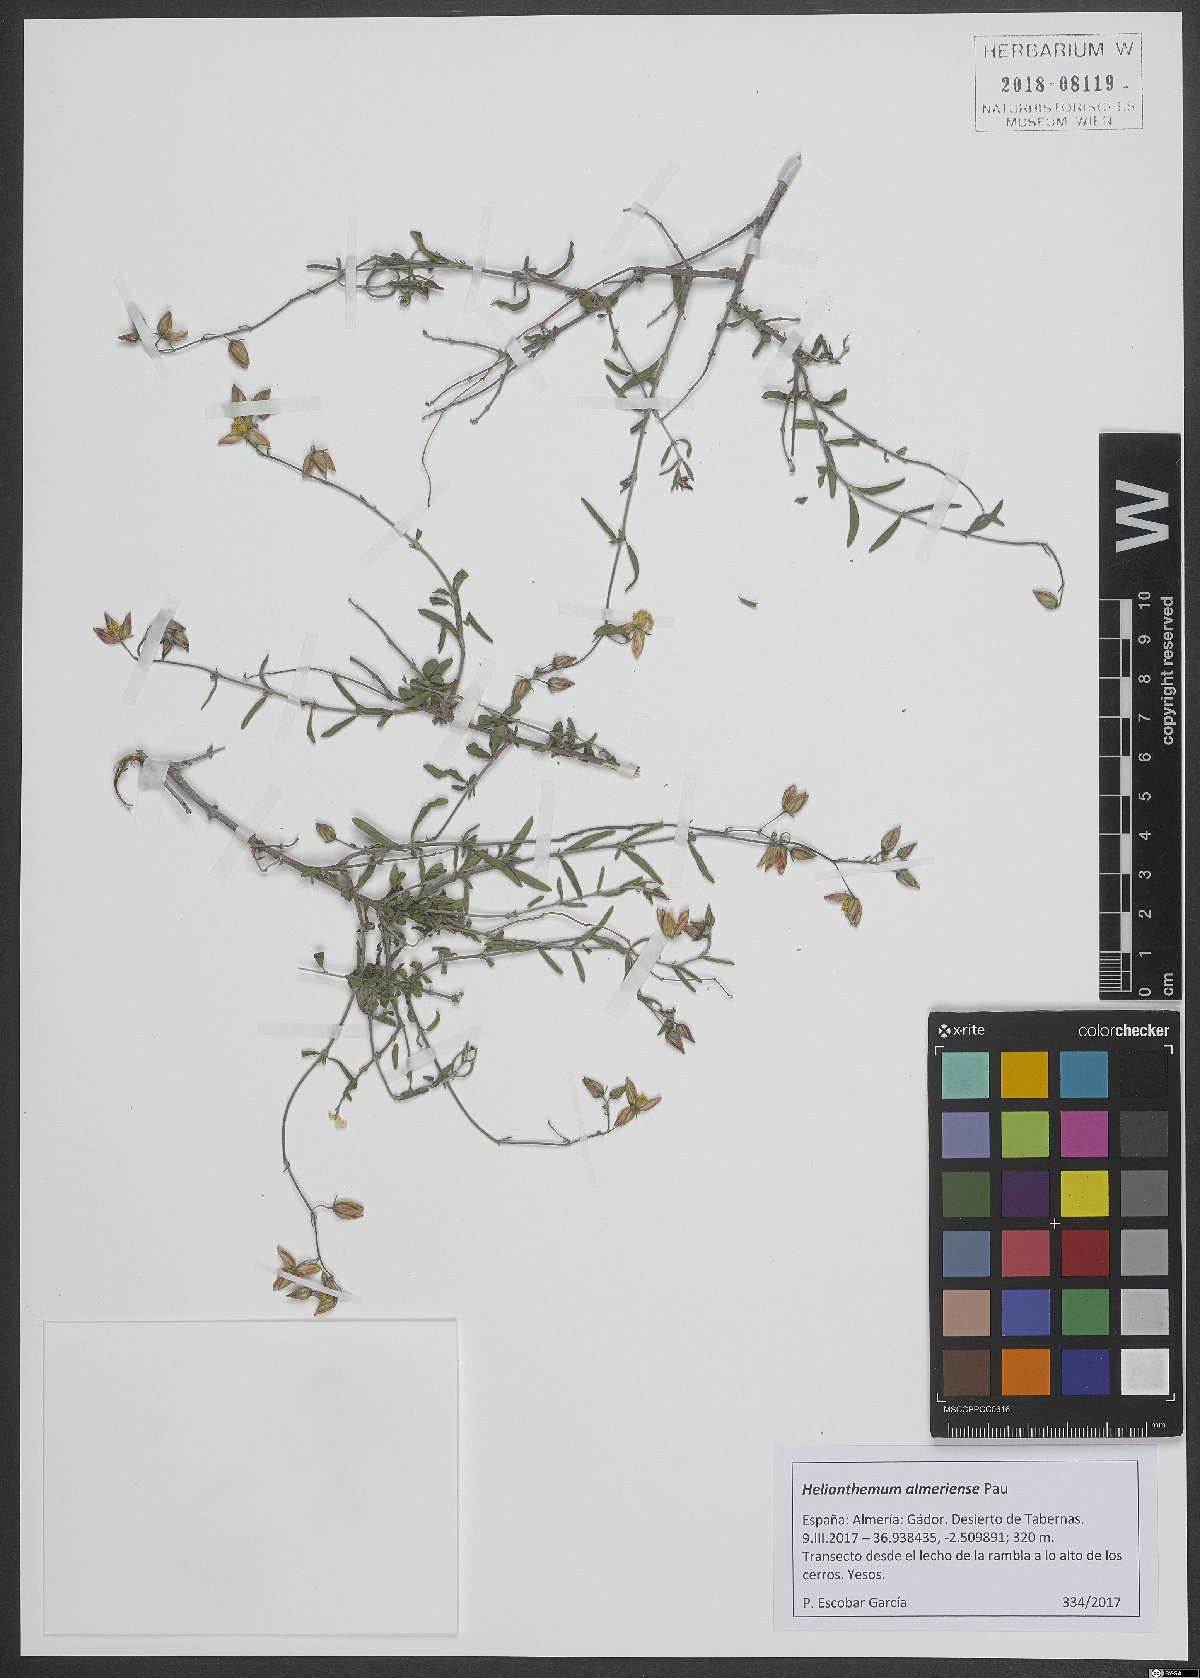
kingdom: Plantae
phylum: Tracheophyta
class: Magnoliopsida
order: Malvales
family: Cistaceae
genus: Helianthemum
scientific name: Helianthemum almeriense
